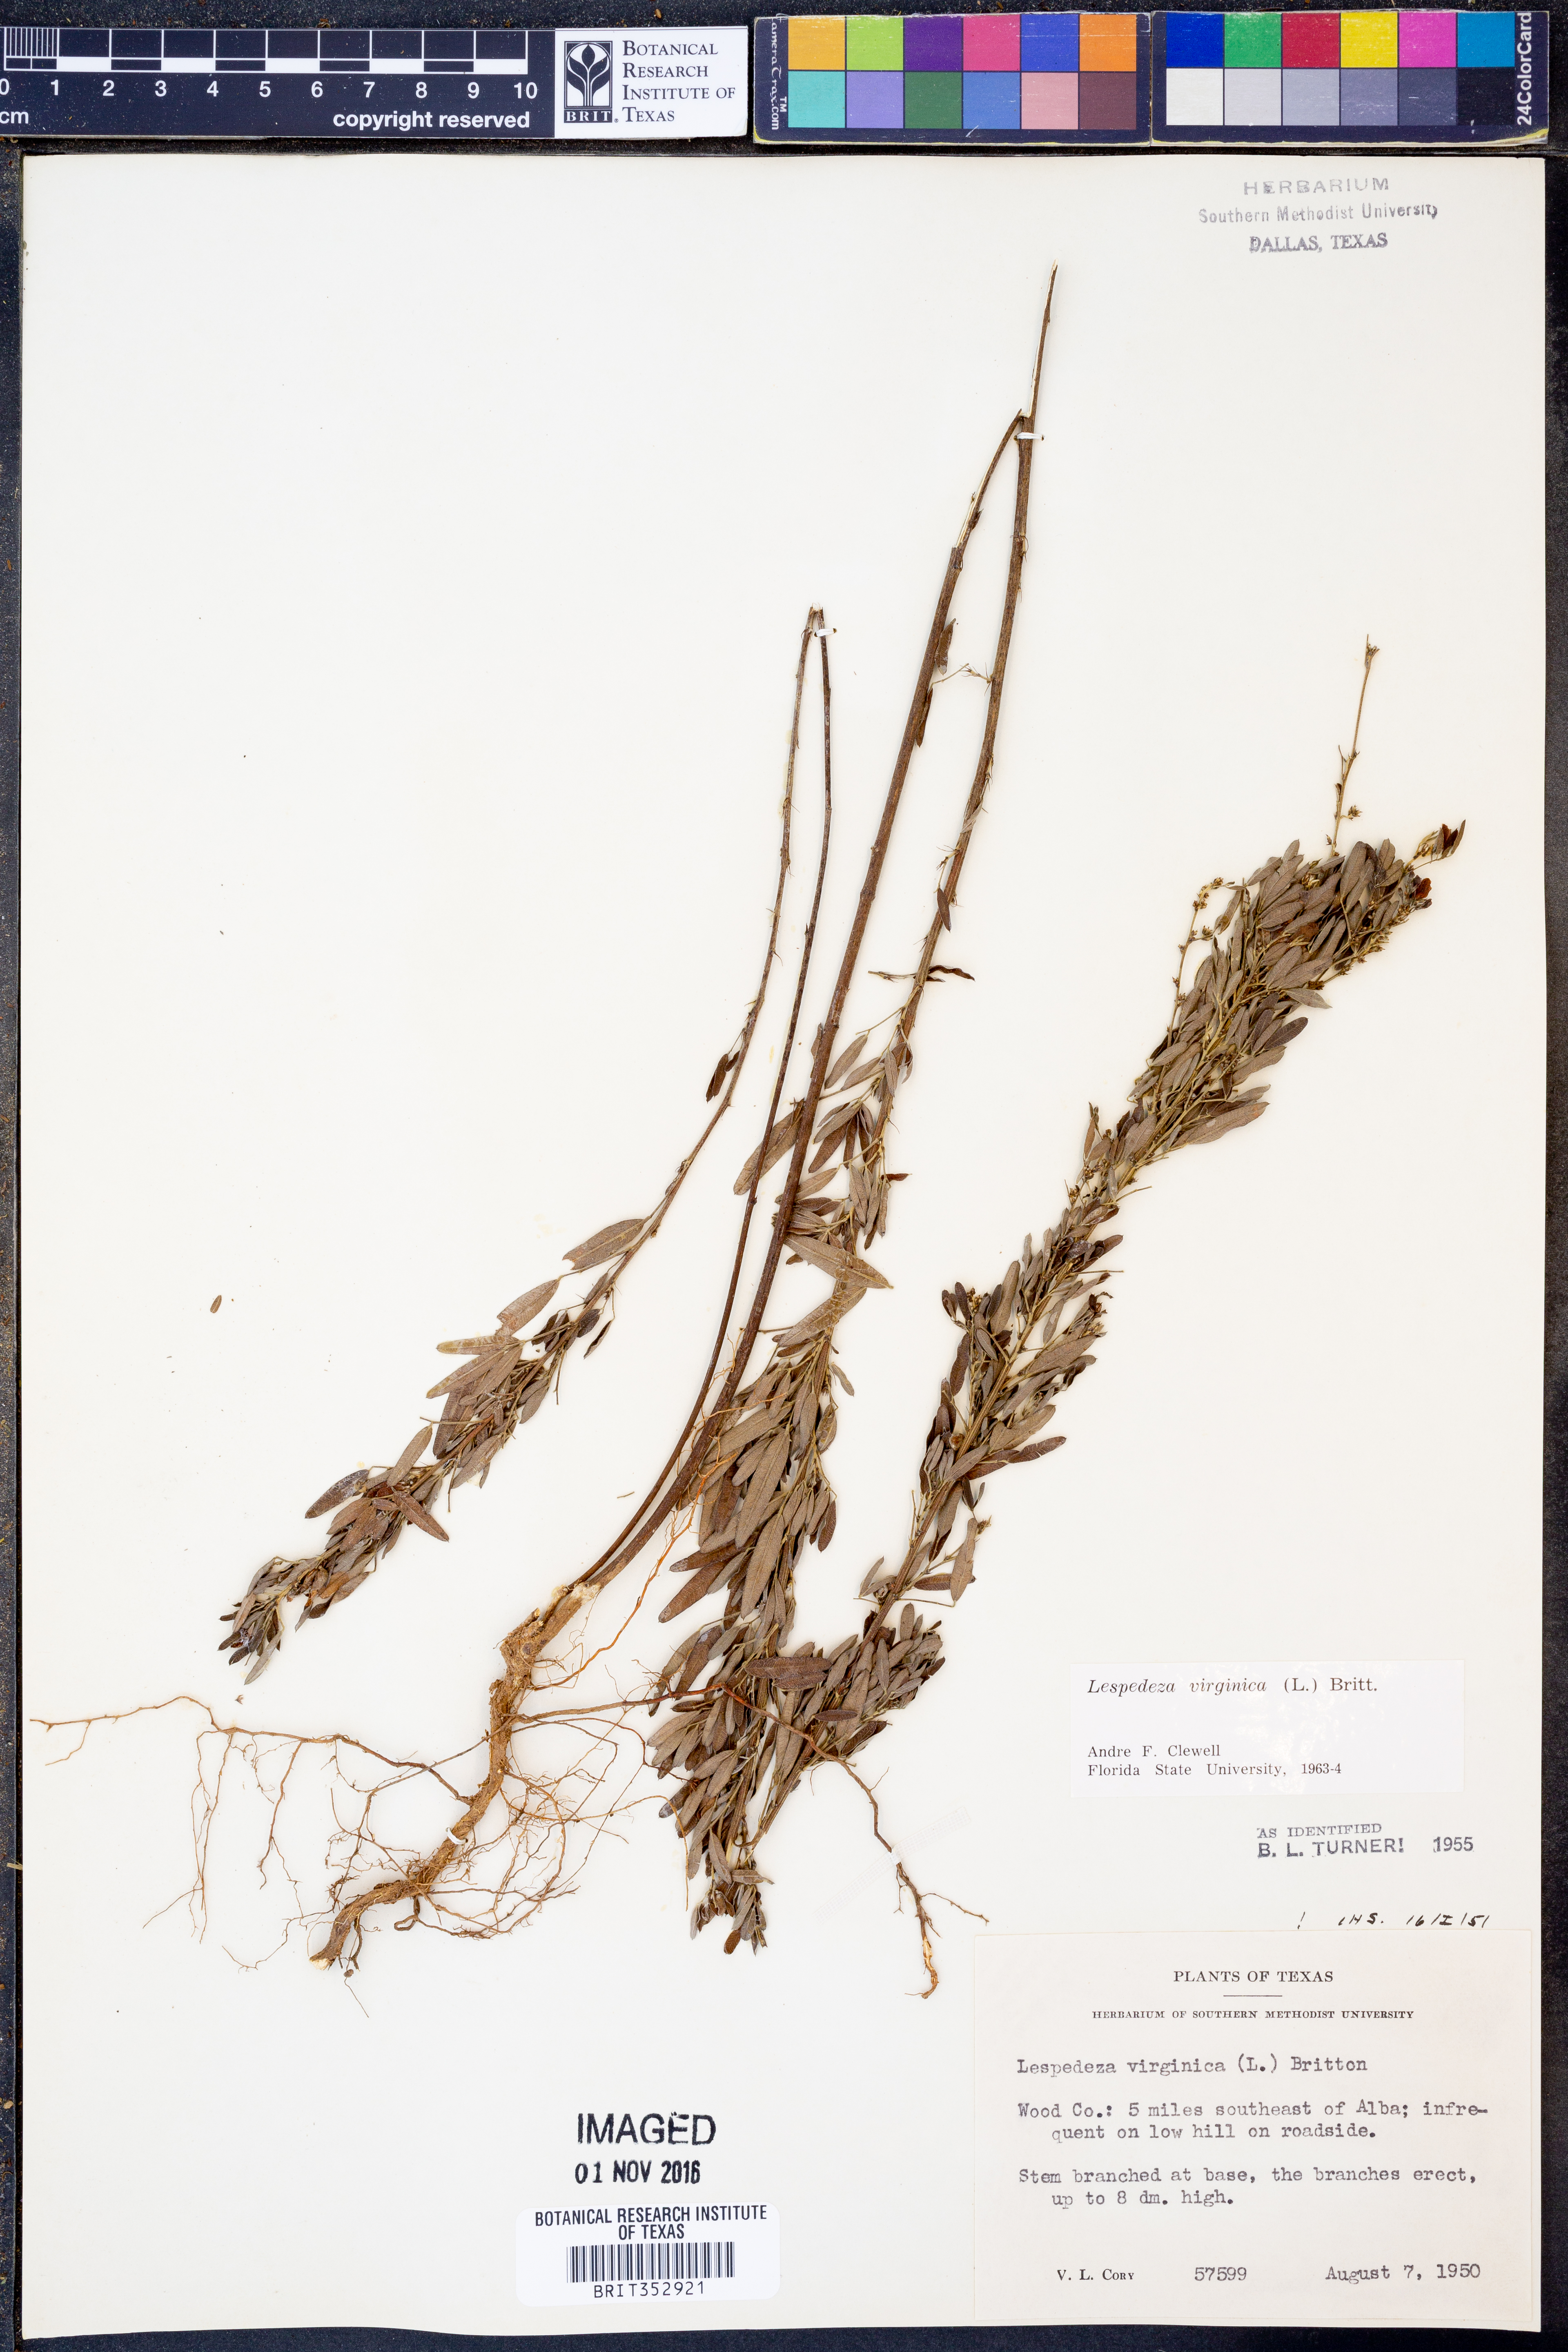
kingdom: Plantae
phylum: Tracheophyta
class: Magnoliopsida
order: Fabales
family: Fabaceae
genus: Lespedeza
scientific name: Lespedeza virginica
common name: Slender bush-clover
